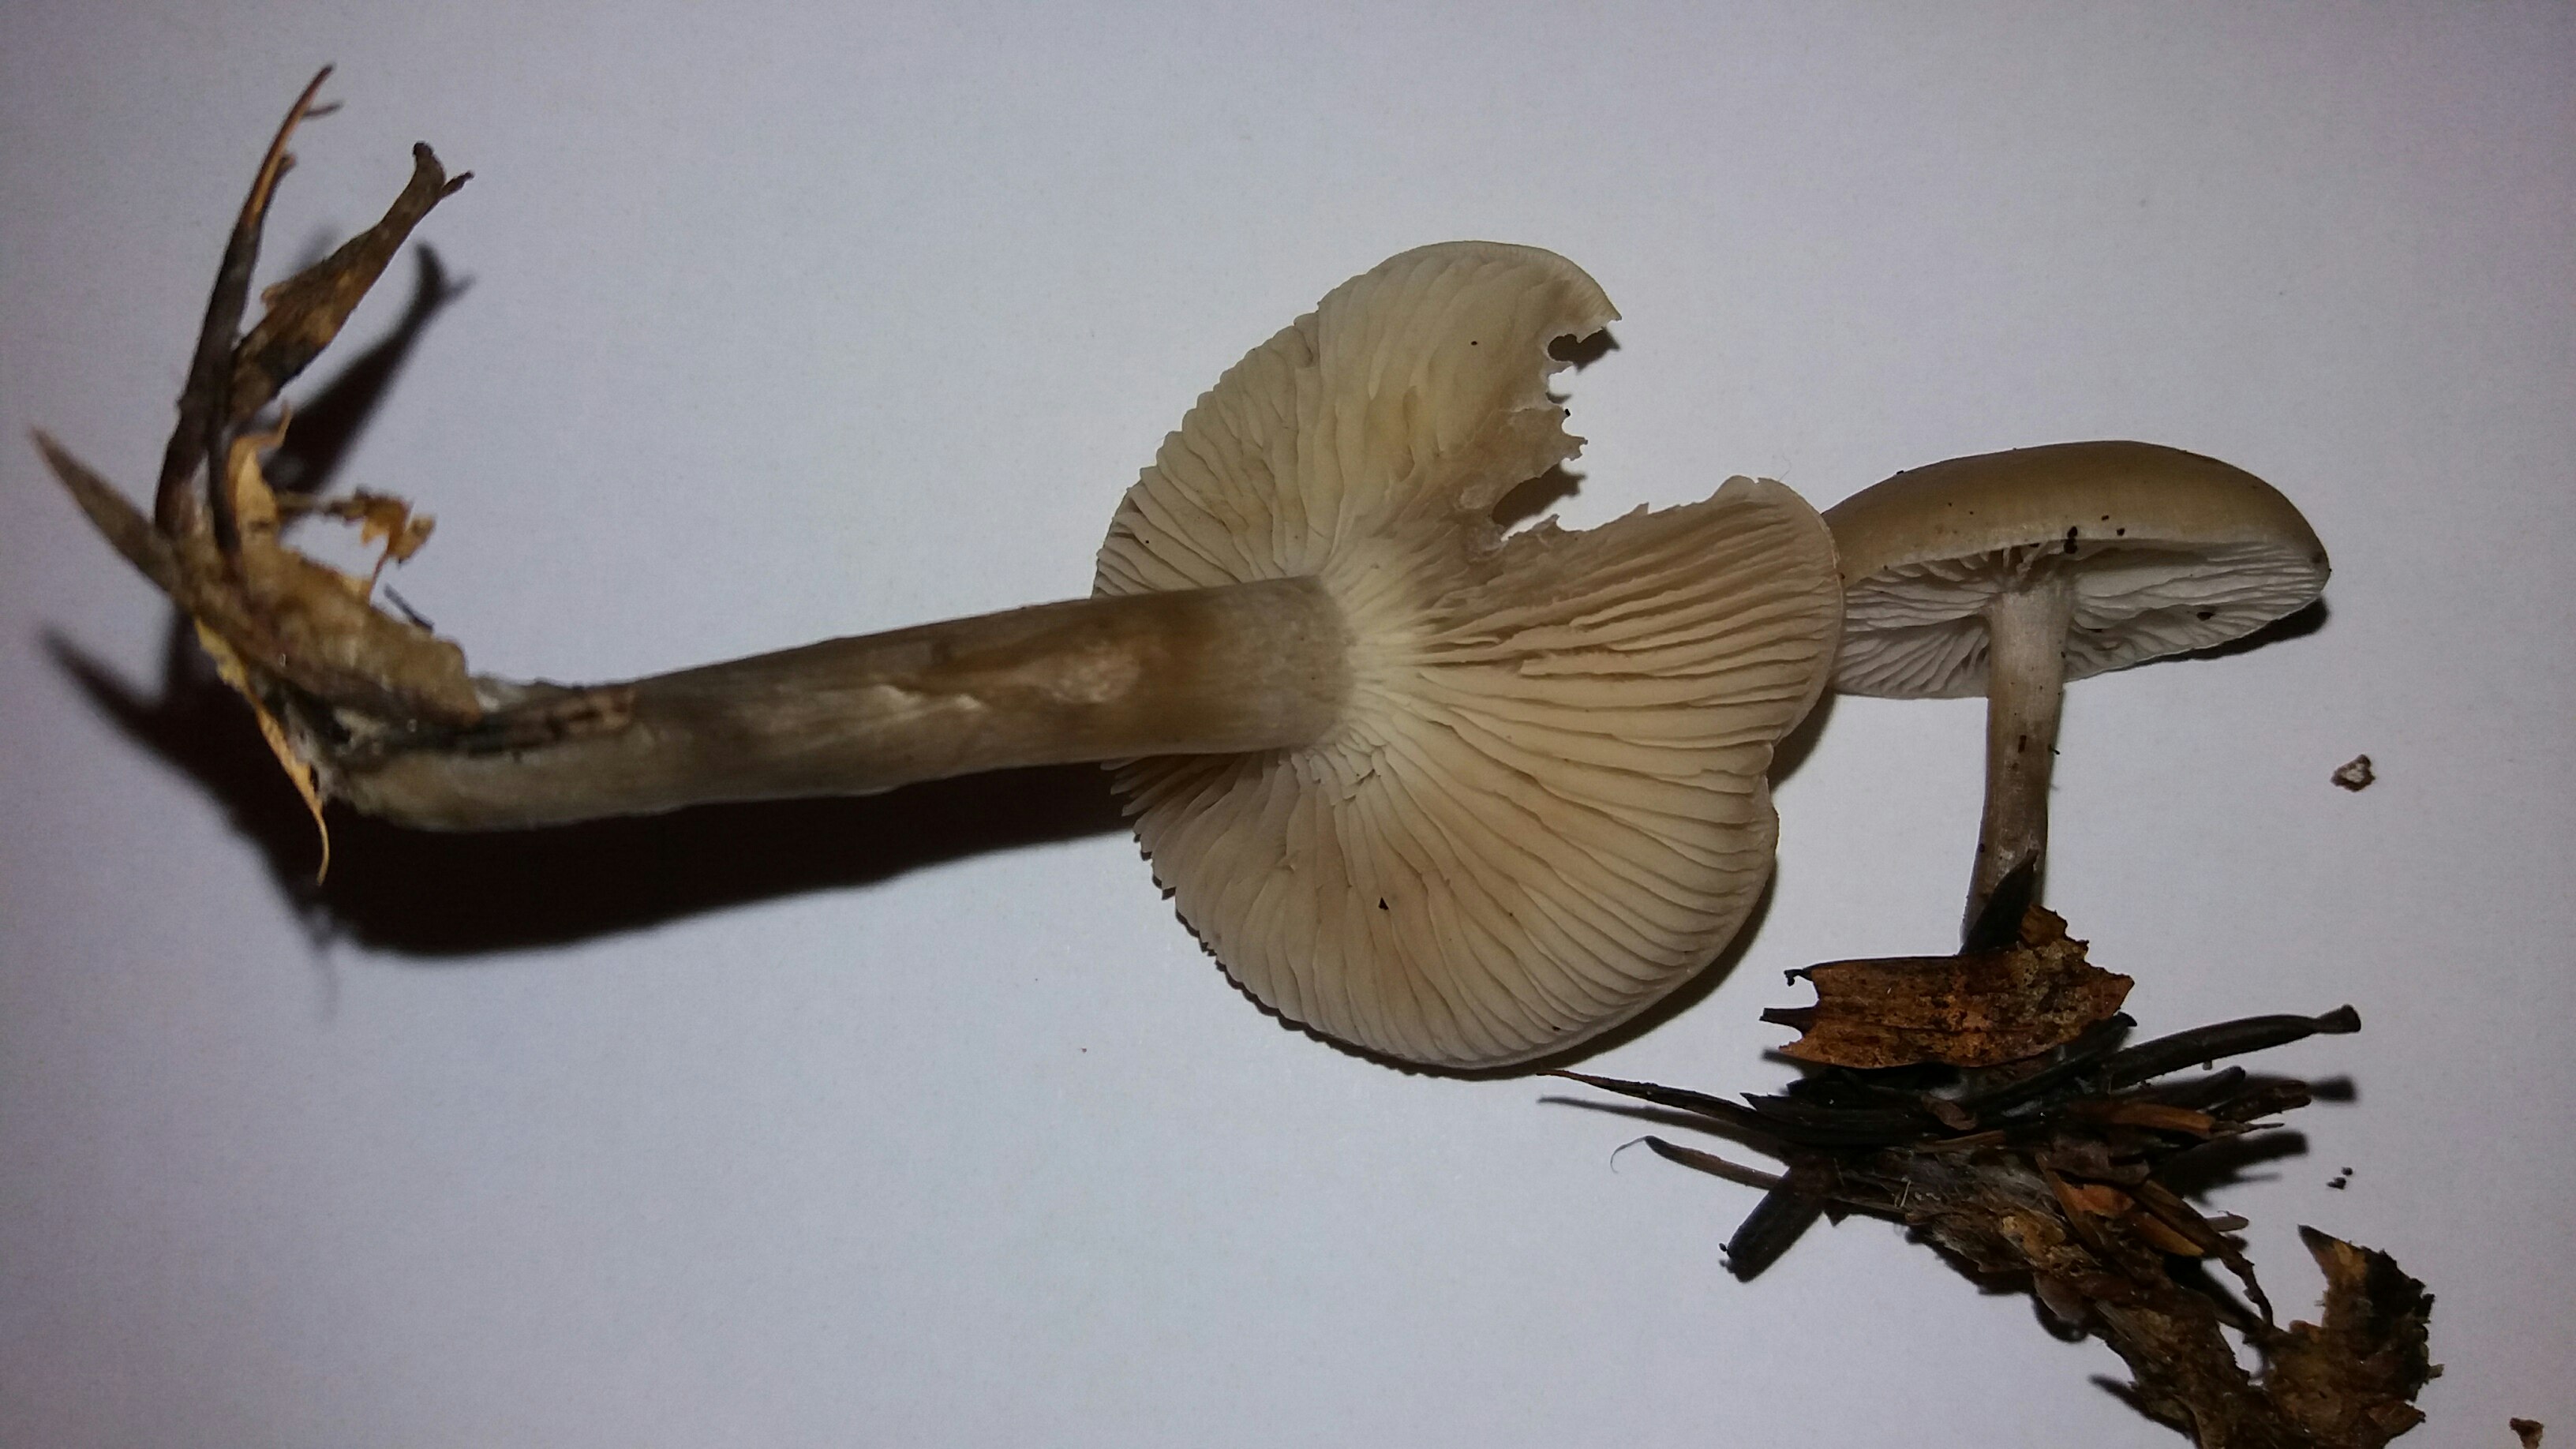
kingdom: Fungi
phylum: Basidiomycota
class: Agaricomycetes
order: Agaricales
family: Tricholomataceae
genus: Clitocybe
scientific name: Clitocybe metachroa
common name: grå tragthat
